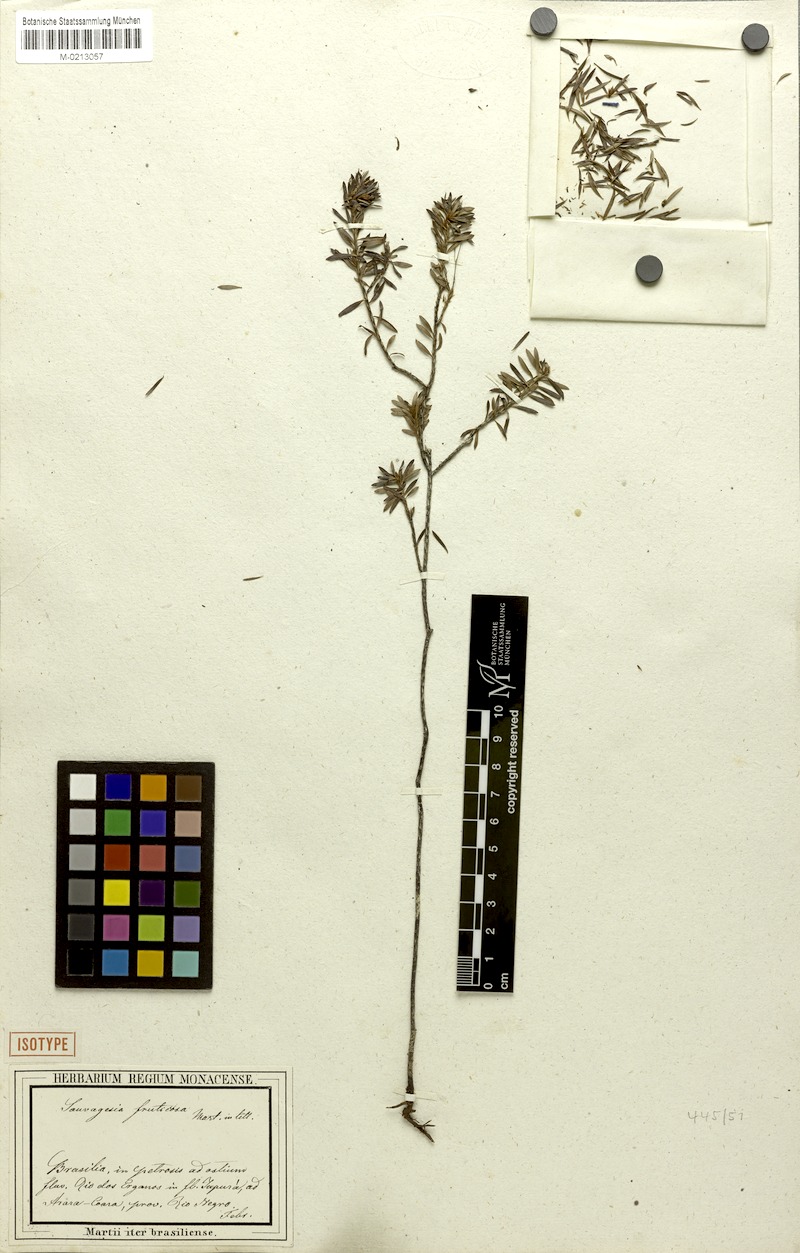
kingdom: Plantae
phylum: Tracheophyta
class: Magnoliopsida
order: Malpighiales
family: Ochnaceae
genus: Sauvagesia
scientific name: Sauvagesia fruticosa
